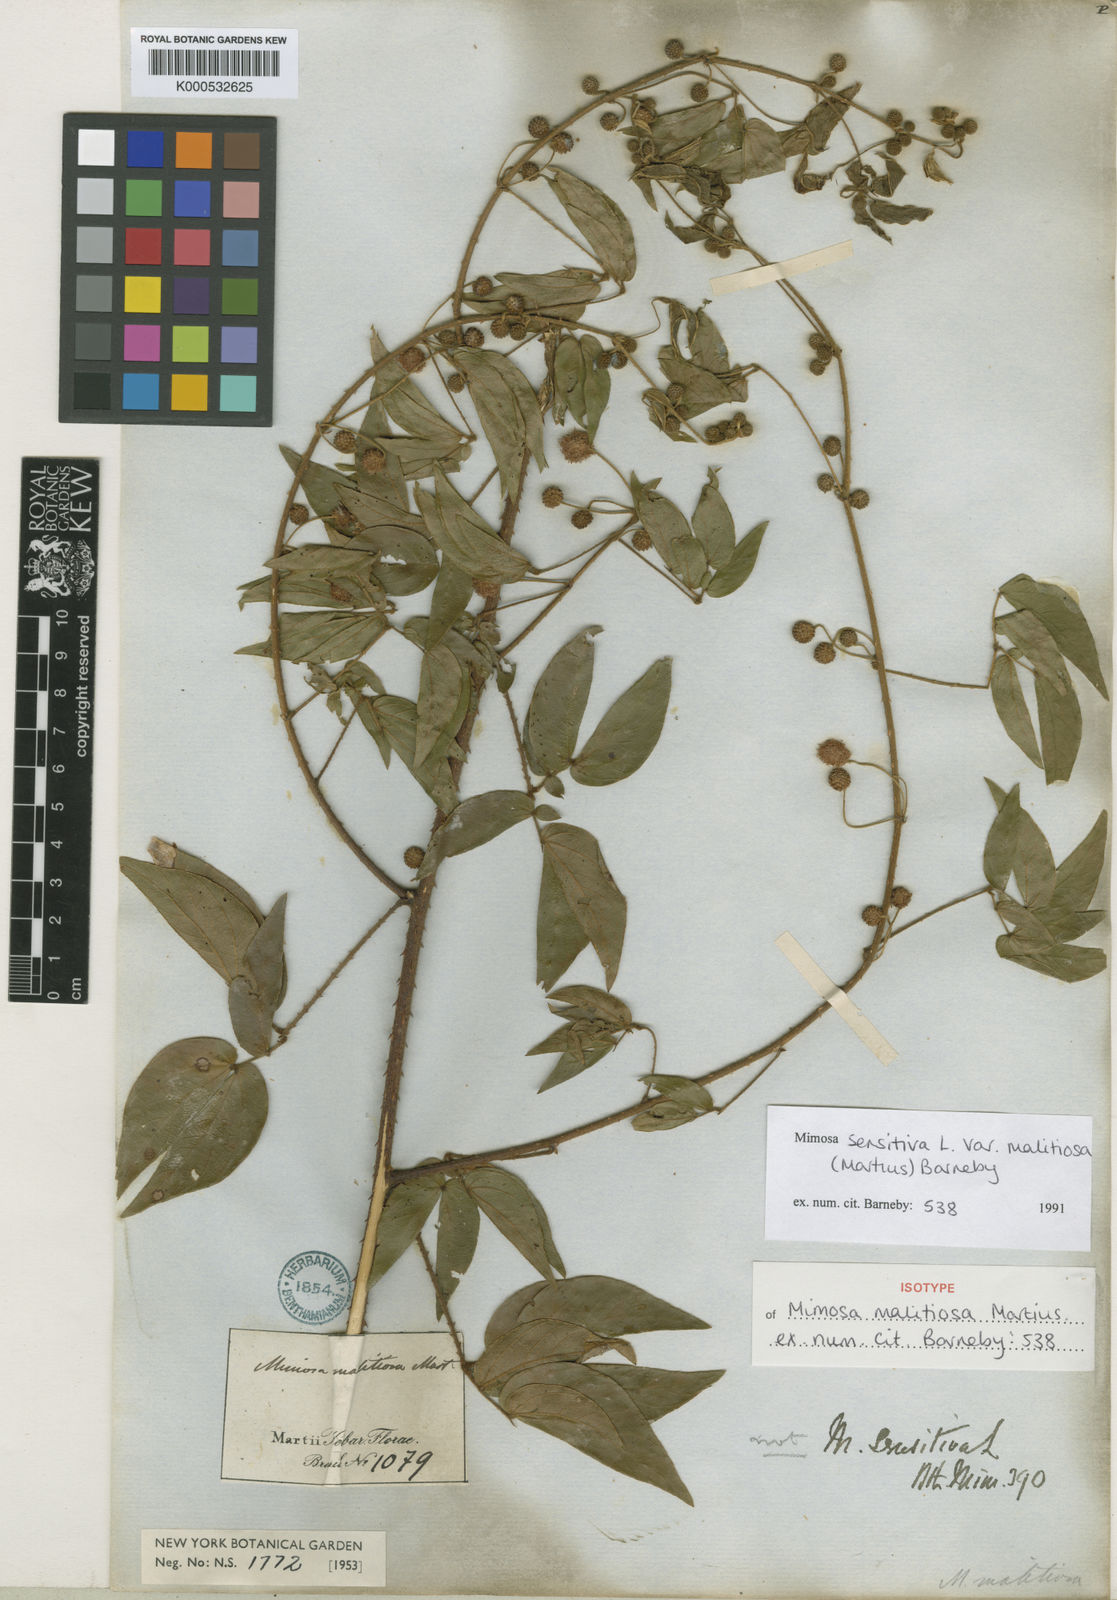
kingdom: Plantae
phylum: Tracheophyta
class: Magnoliopsida
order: Fabales
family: Fabaceae
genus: Mimosa
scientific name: Mimosa sensitiva
